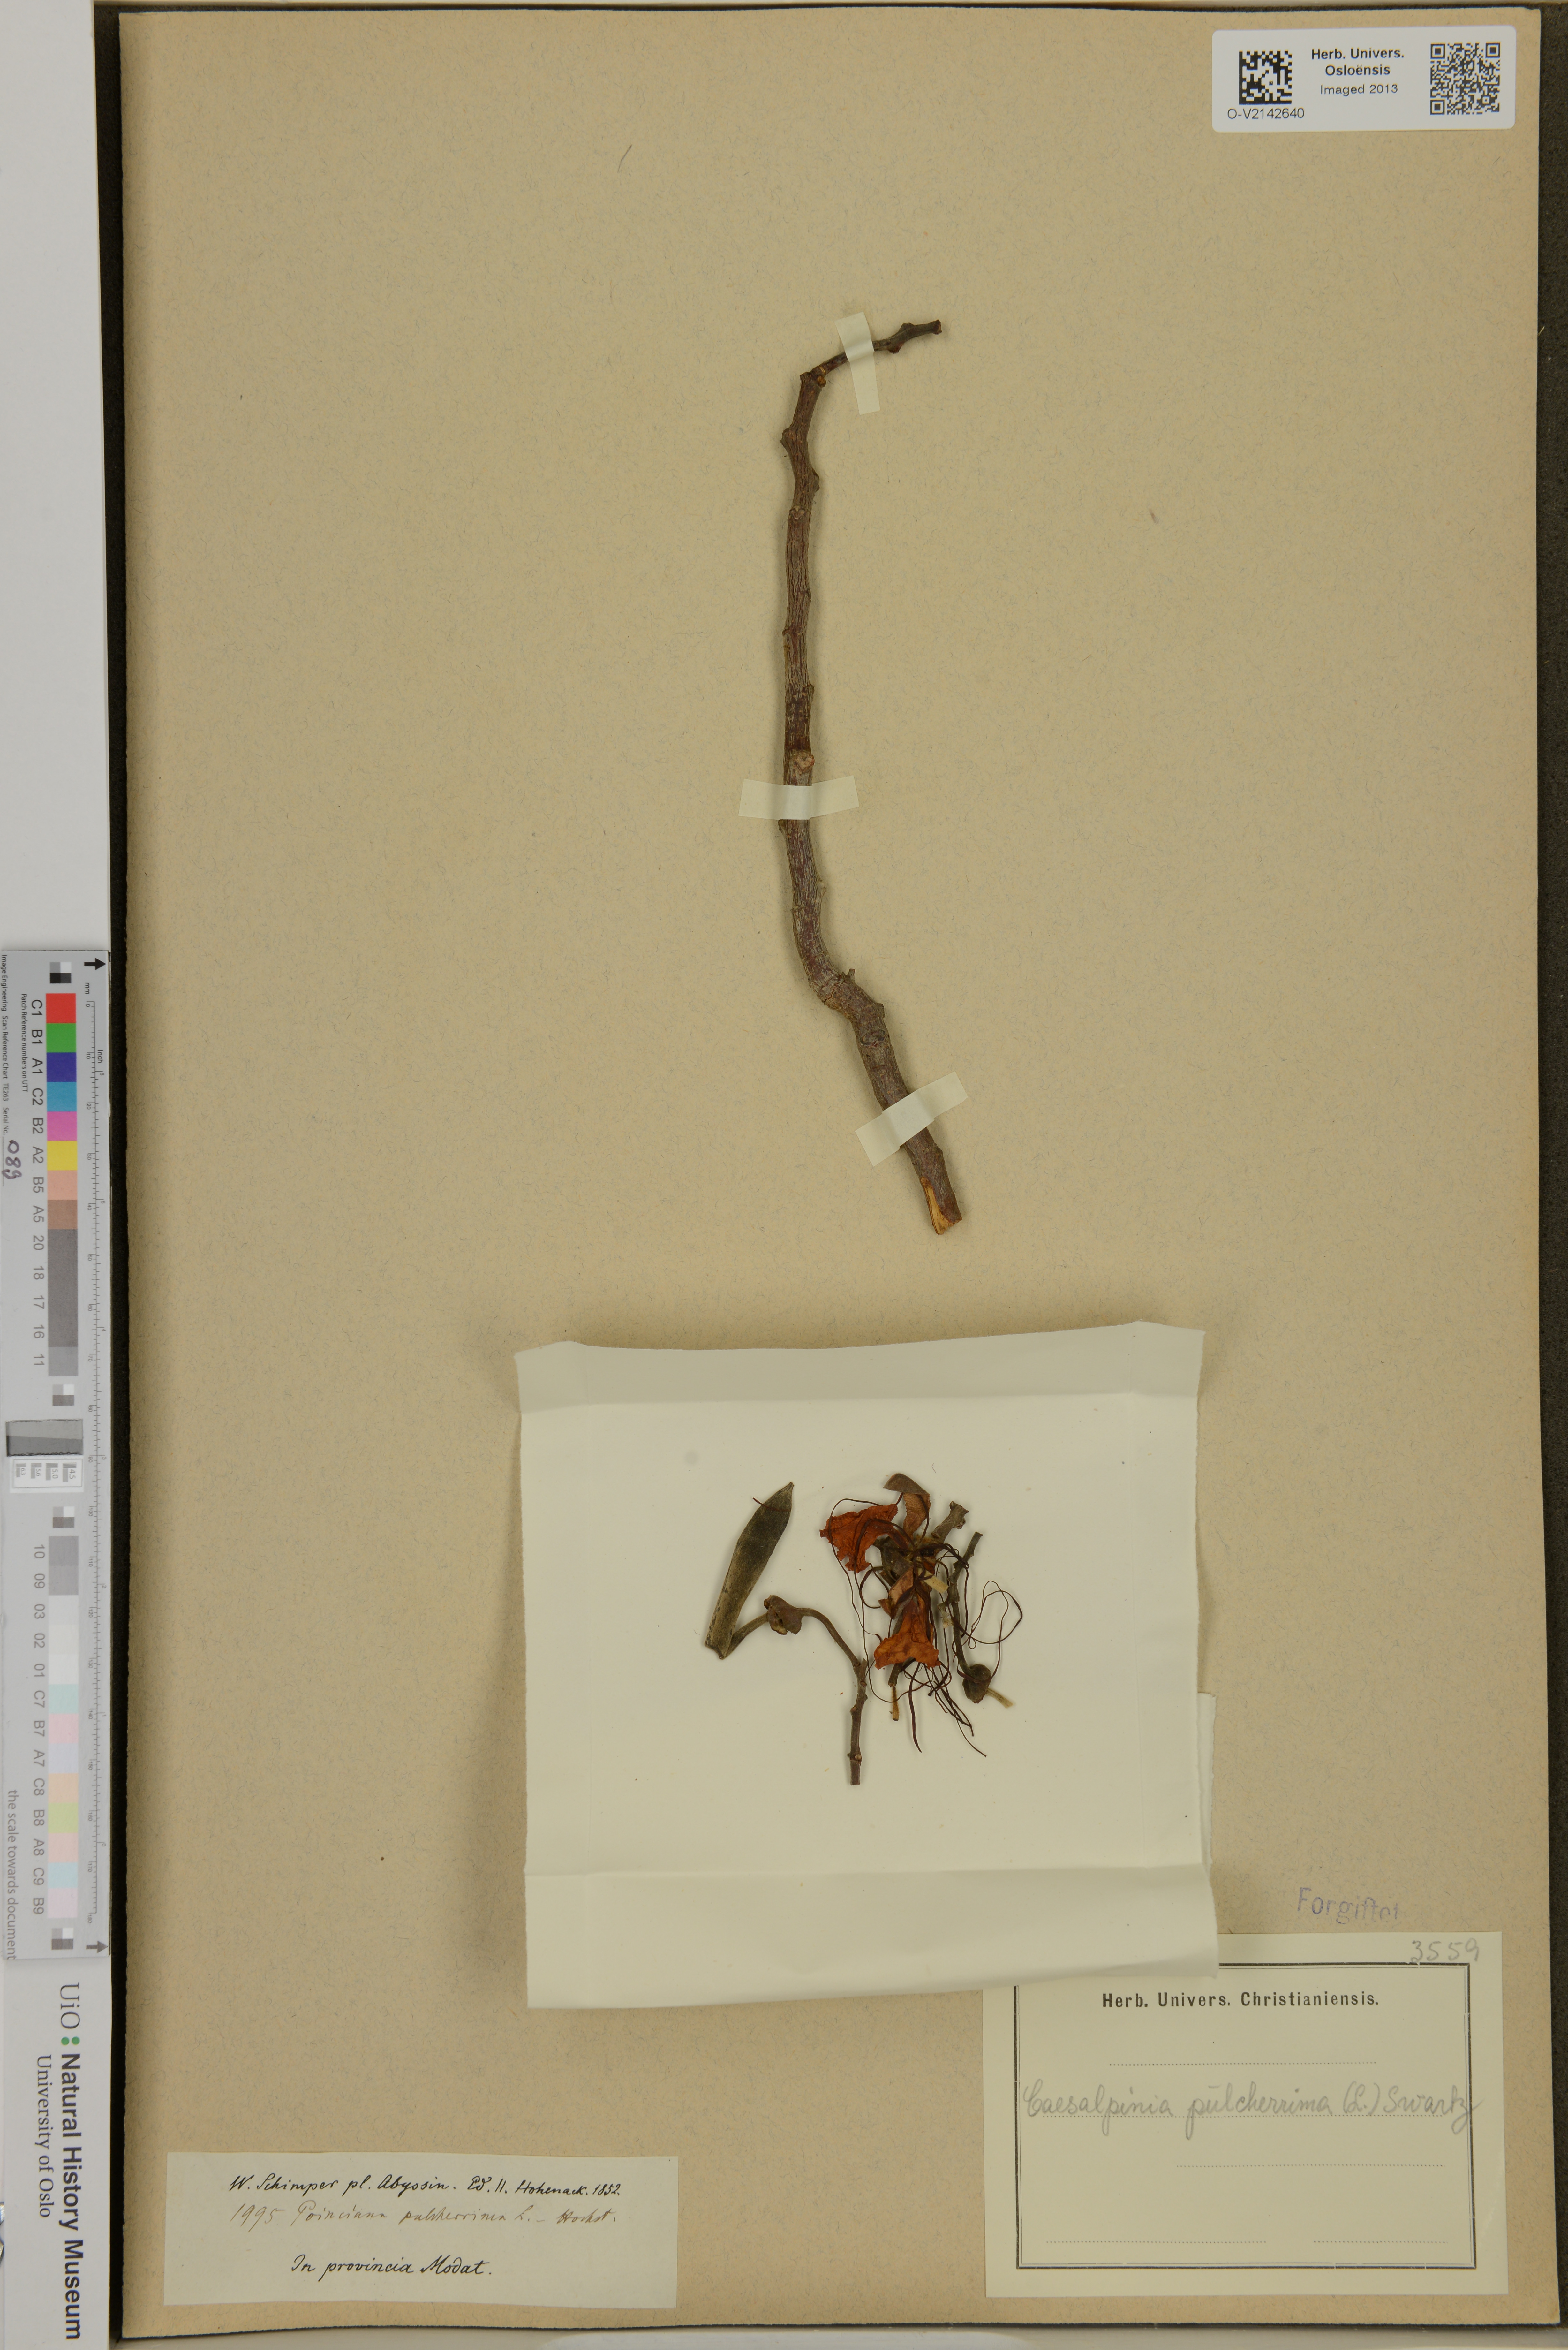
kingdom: Plantae
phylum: Tracheophyta
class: Magnoliopsida
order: Fabales
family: Fabaceae
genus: Caesalpinia
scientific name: Caesalpinia pulcherrima
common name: Pride-of-barbados
